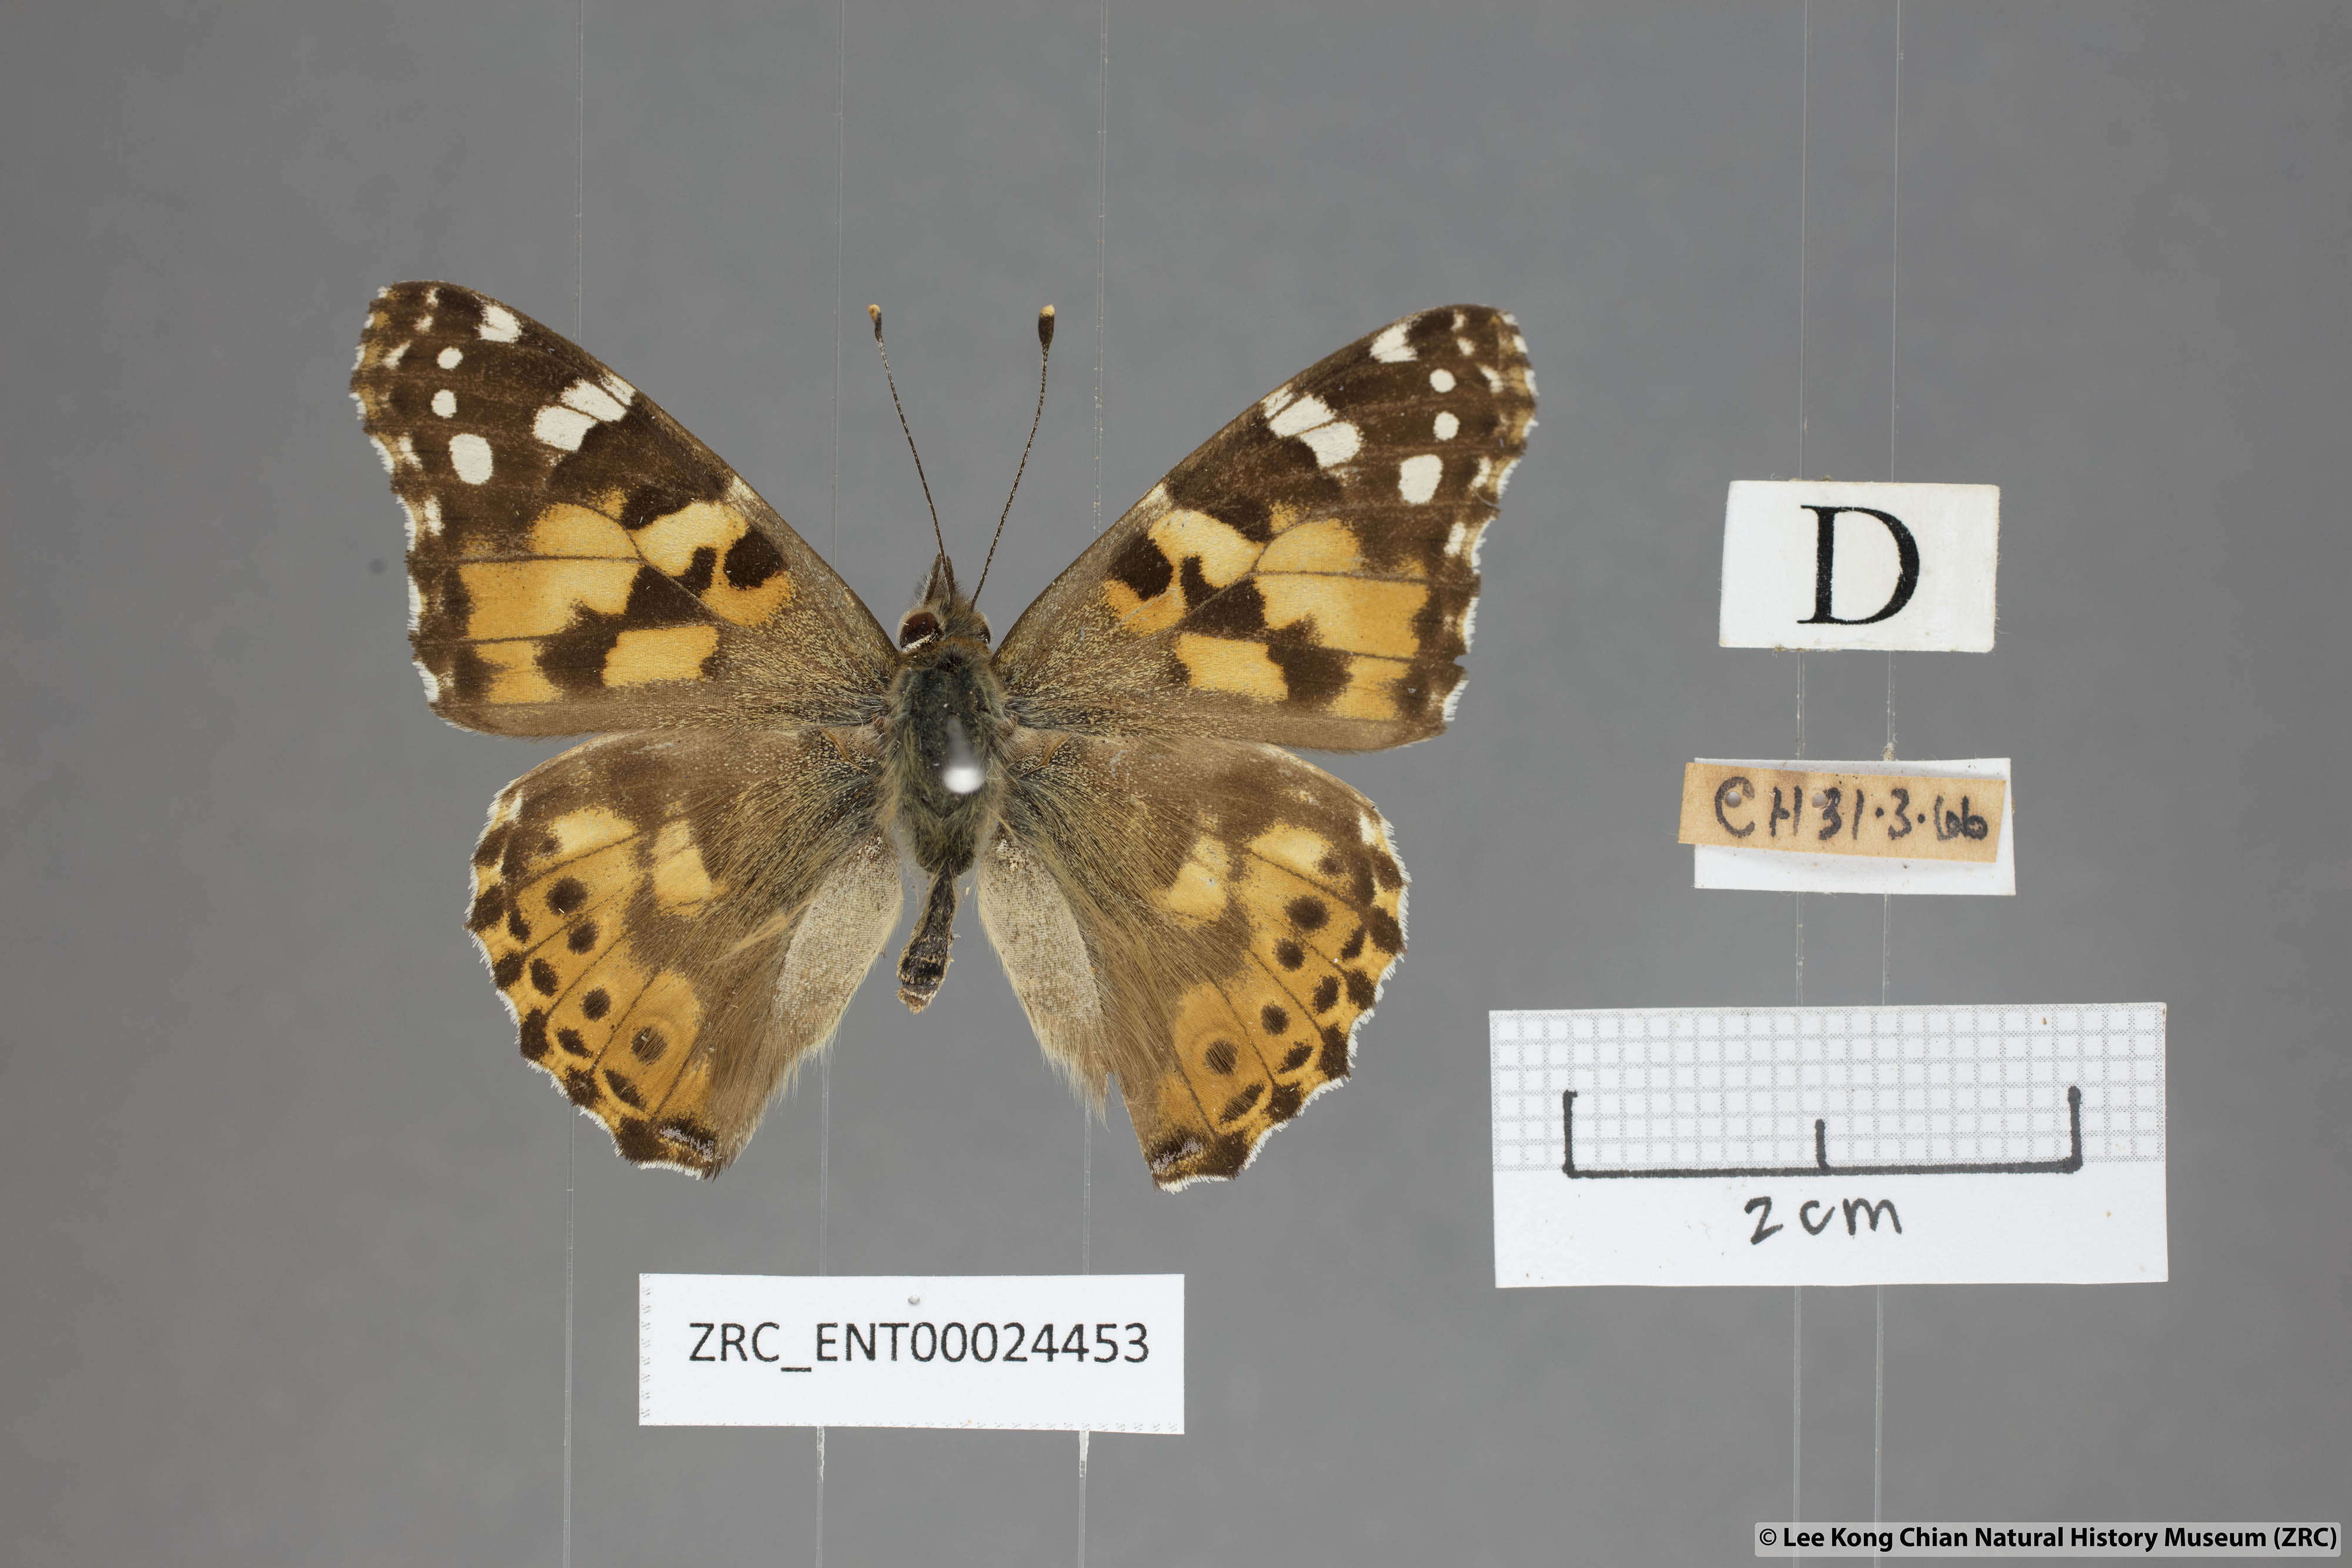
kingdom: Animalia
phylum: Arthropoda
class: Insecta
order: Lepidoptera
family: Nymphalidae
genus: Vanessa
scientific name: Vanessa cardui
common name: Painted lady
